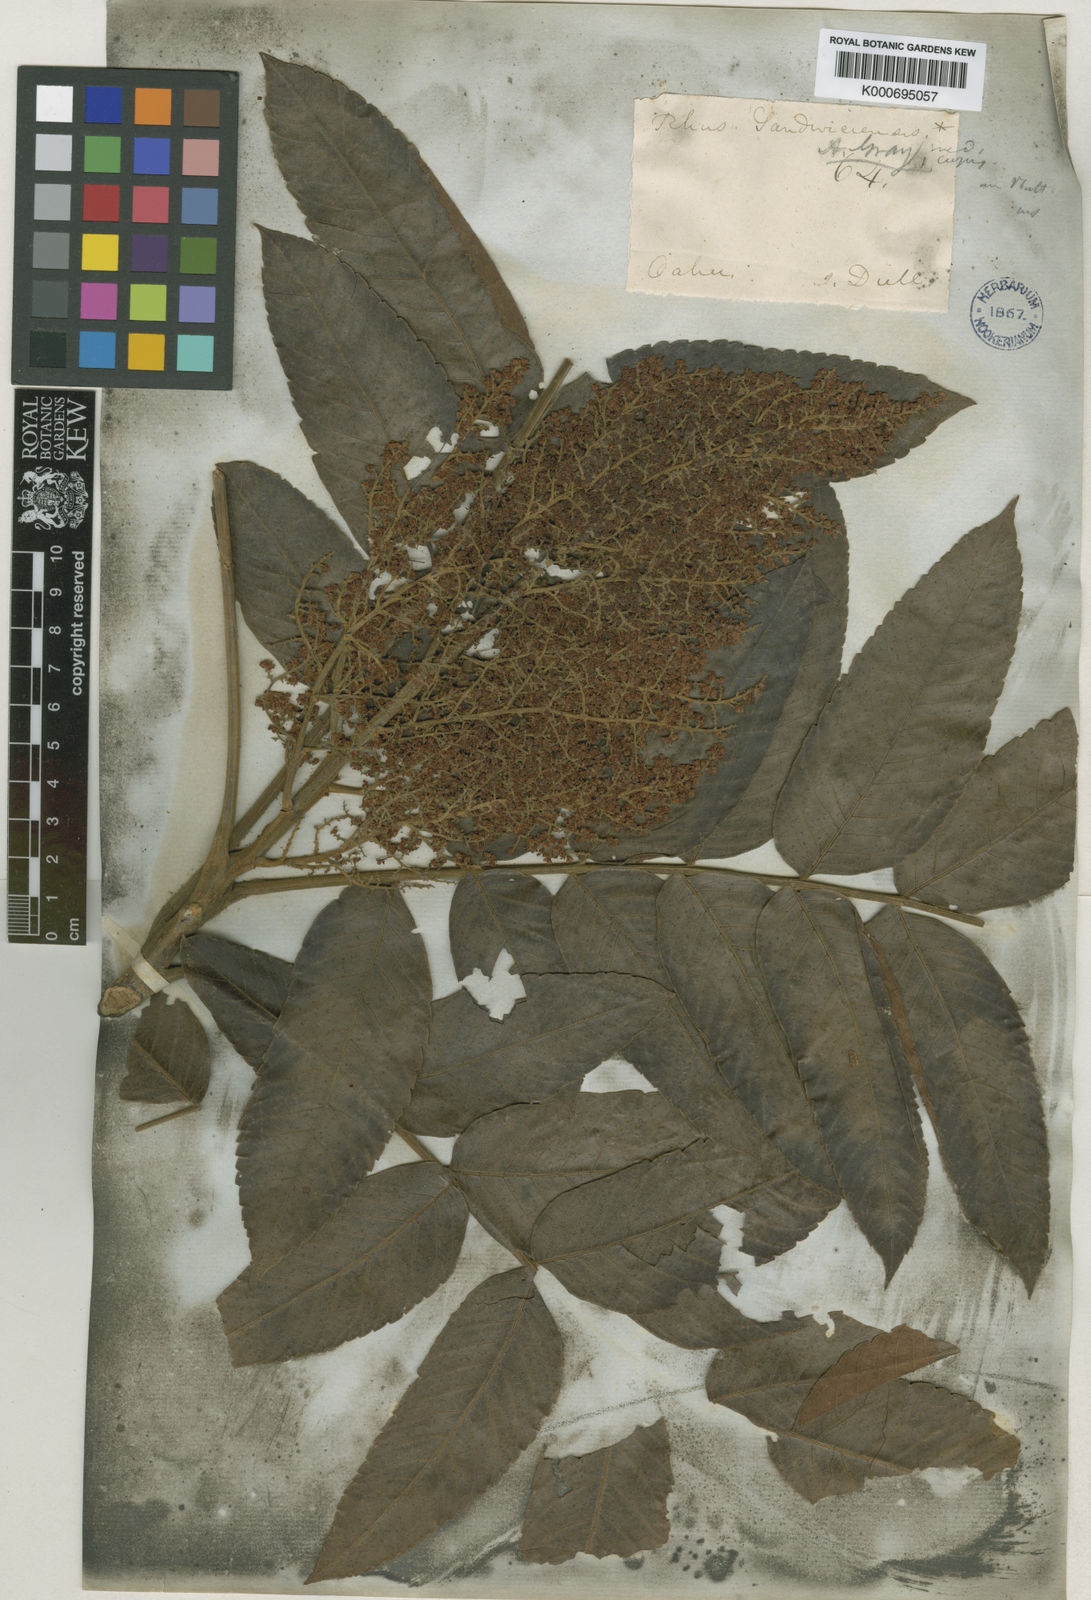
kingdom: Plantae
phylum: Tracheophyta
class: Magnoliopsida
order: Sapindales
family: Anacardiaceae
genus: Rhus
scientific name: Rhus sandwicensis
